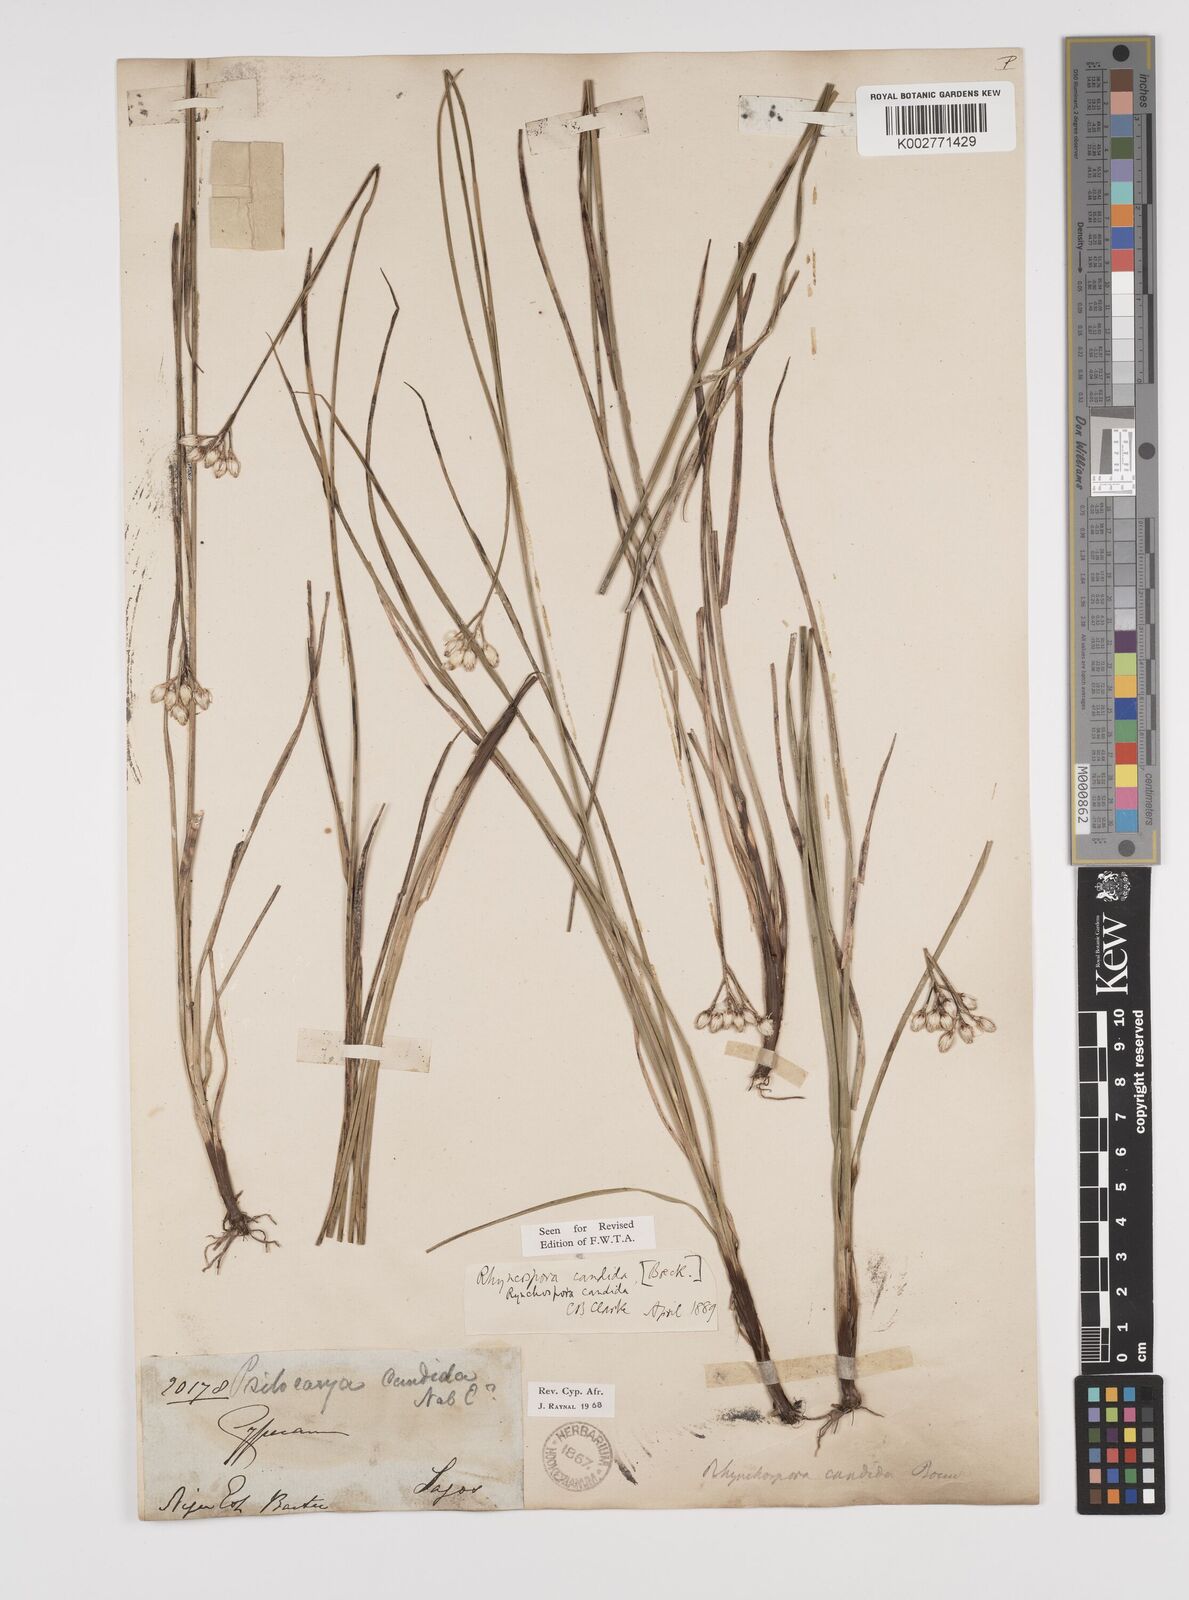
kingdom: Plantae
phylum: Tracheophyta
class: Liliopsida
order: Poales
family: Cyperaceae
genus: Rhynchospora
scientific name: Rhynchospora candida
